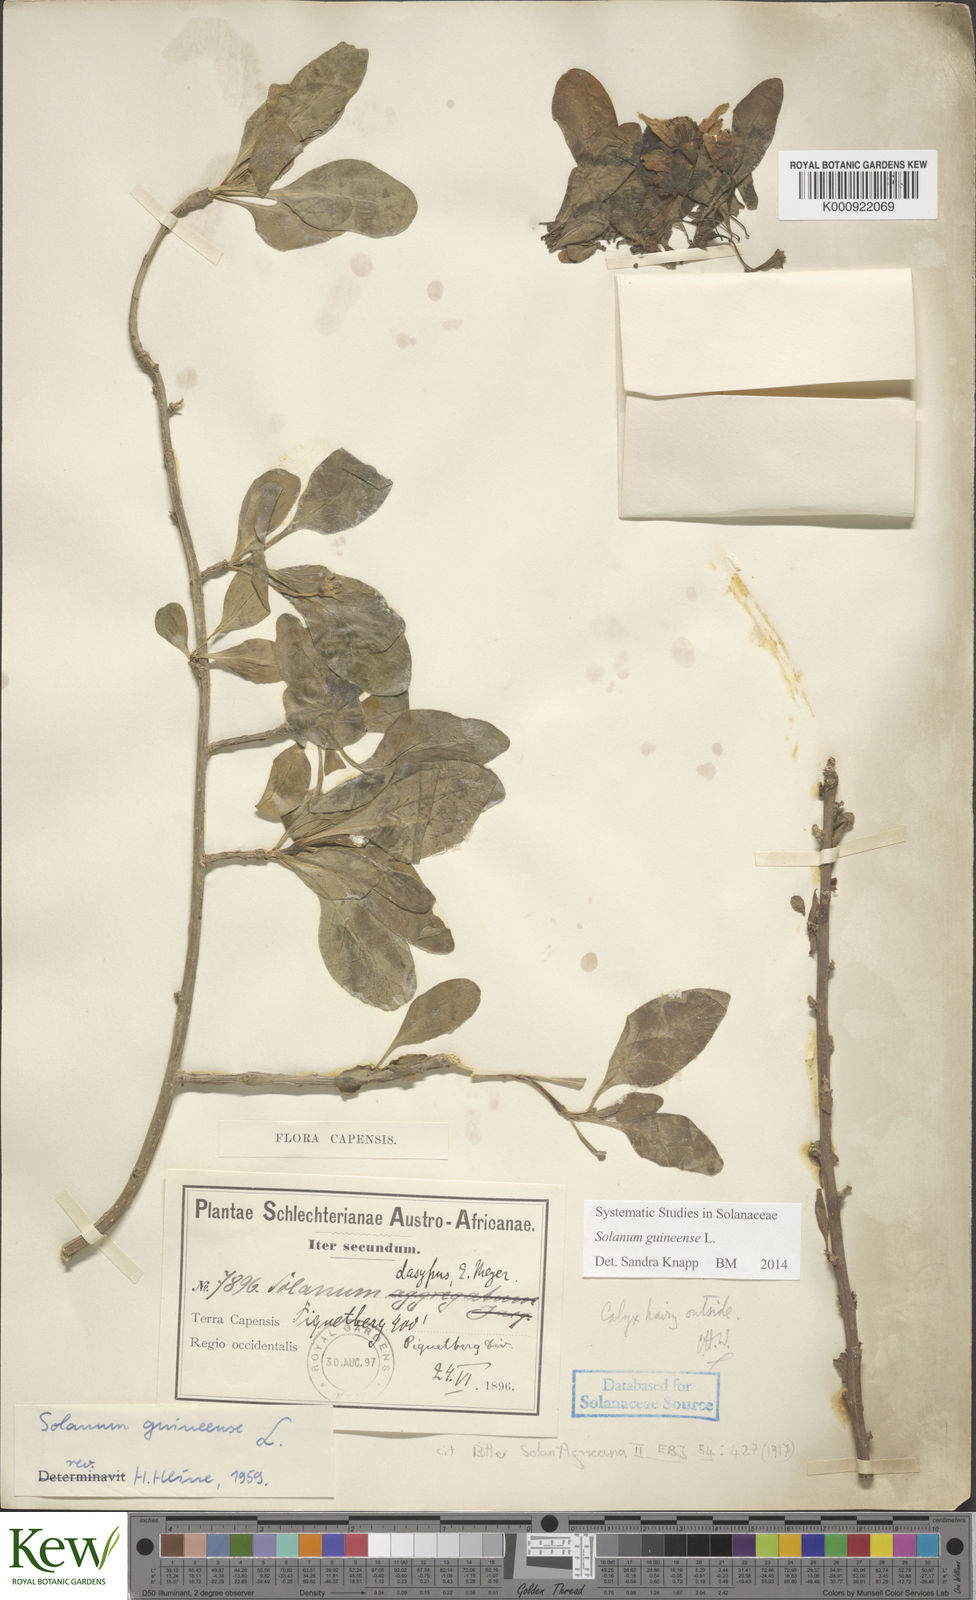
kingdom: Plantae
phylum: Tracheophyta
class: Magnoliopsida
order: Solanales
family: Solanaceae
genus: Solanum
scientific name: Solanum guineense
